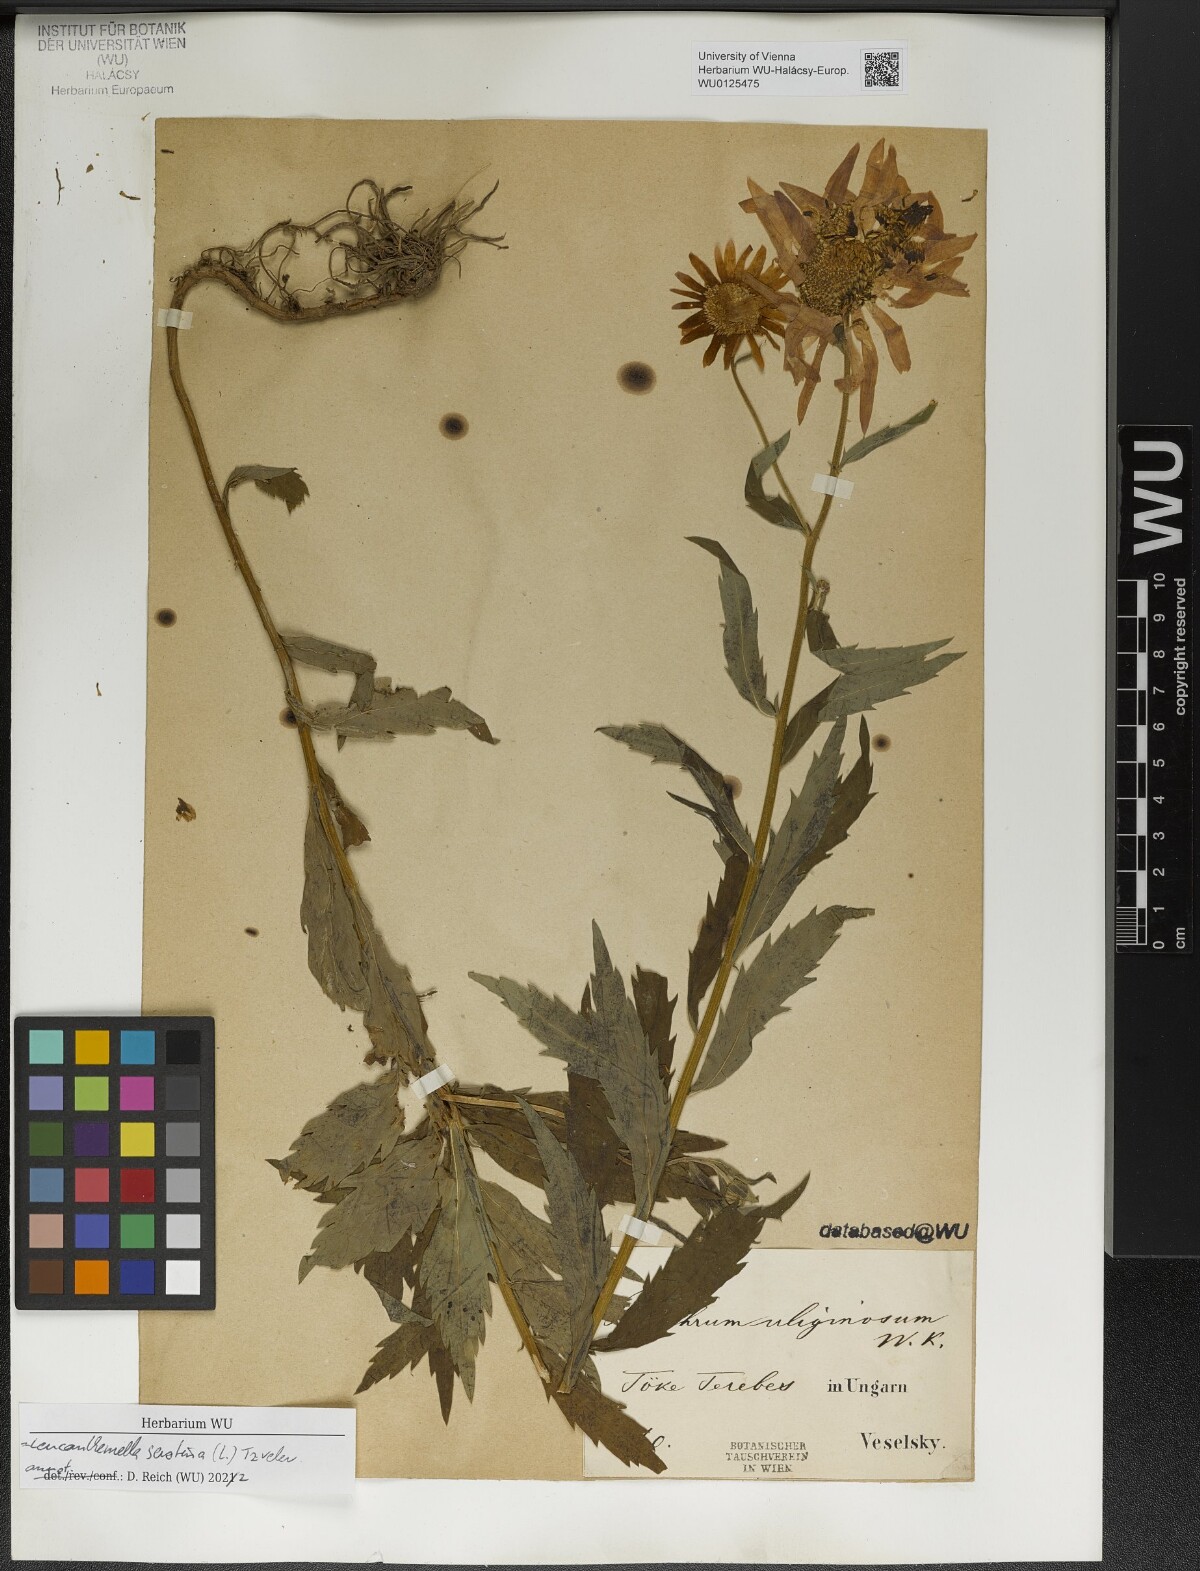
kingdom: Plantae
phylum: Tracheophyta
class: Magnoliopsida
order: Asterales
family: Asteraceae
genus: Leucanthemella
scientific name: Leucanthemella serotina
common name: Autumn oxeye
